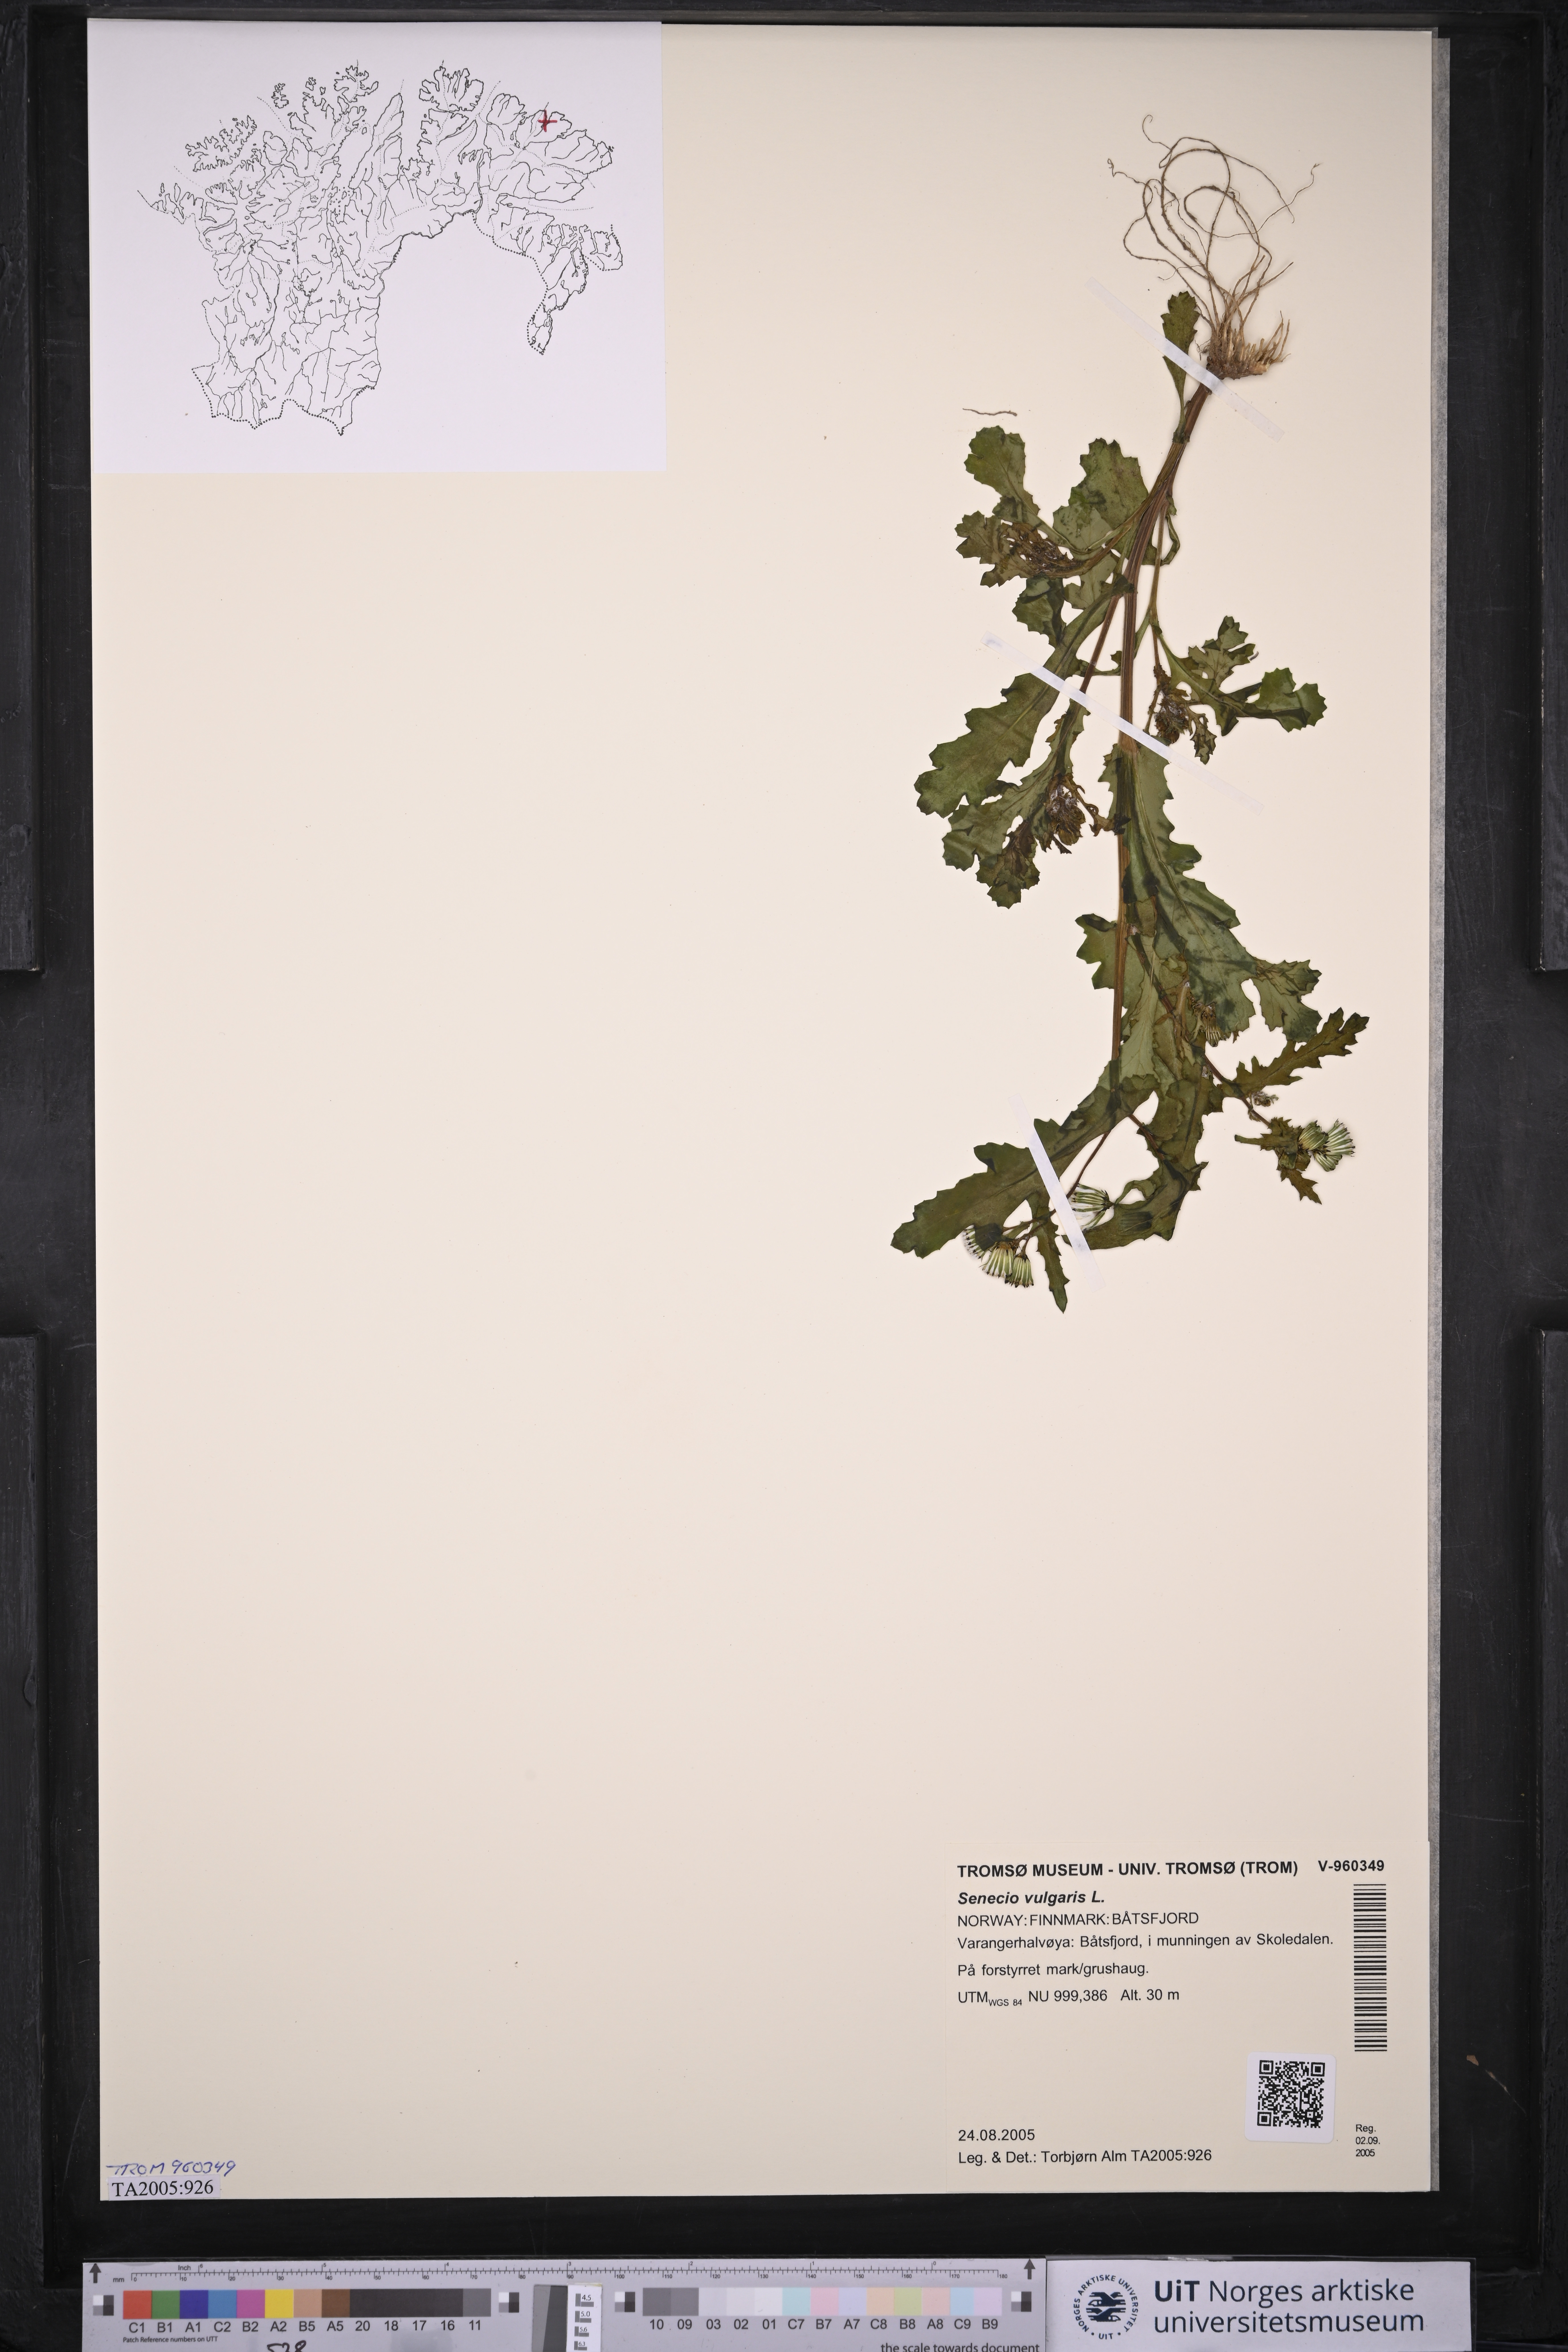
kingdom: Plantae
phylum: Tracheophyta
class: Magnoliopsida
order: Asterales
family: Asteraceae
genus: Senecio
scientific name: Senecio vulgaris
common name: Old-man-in-the-spring
